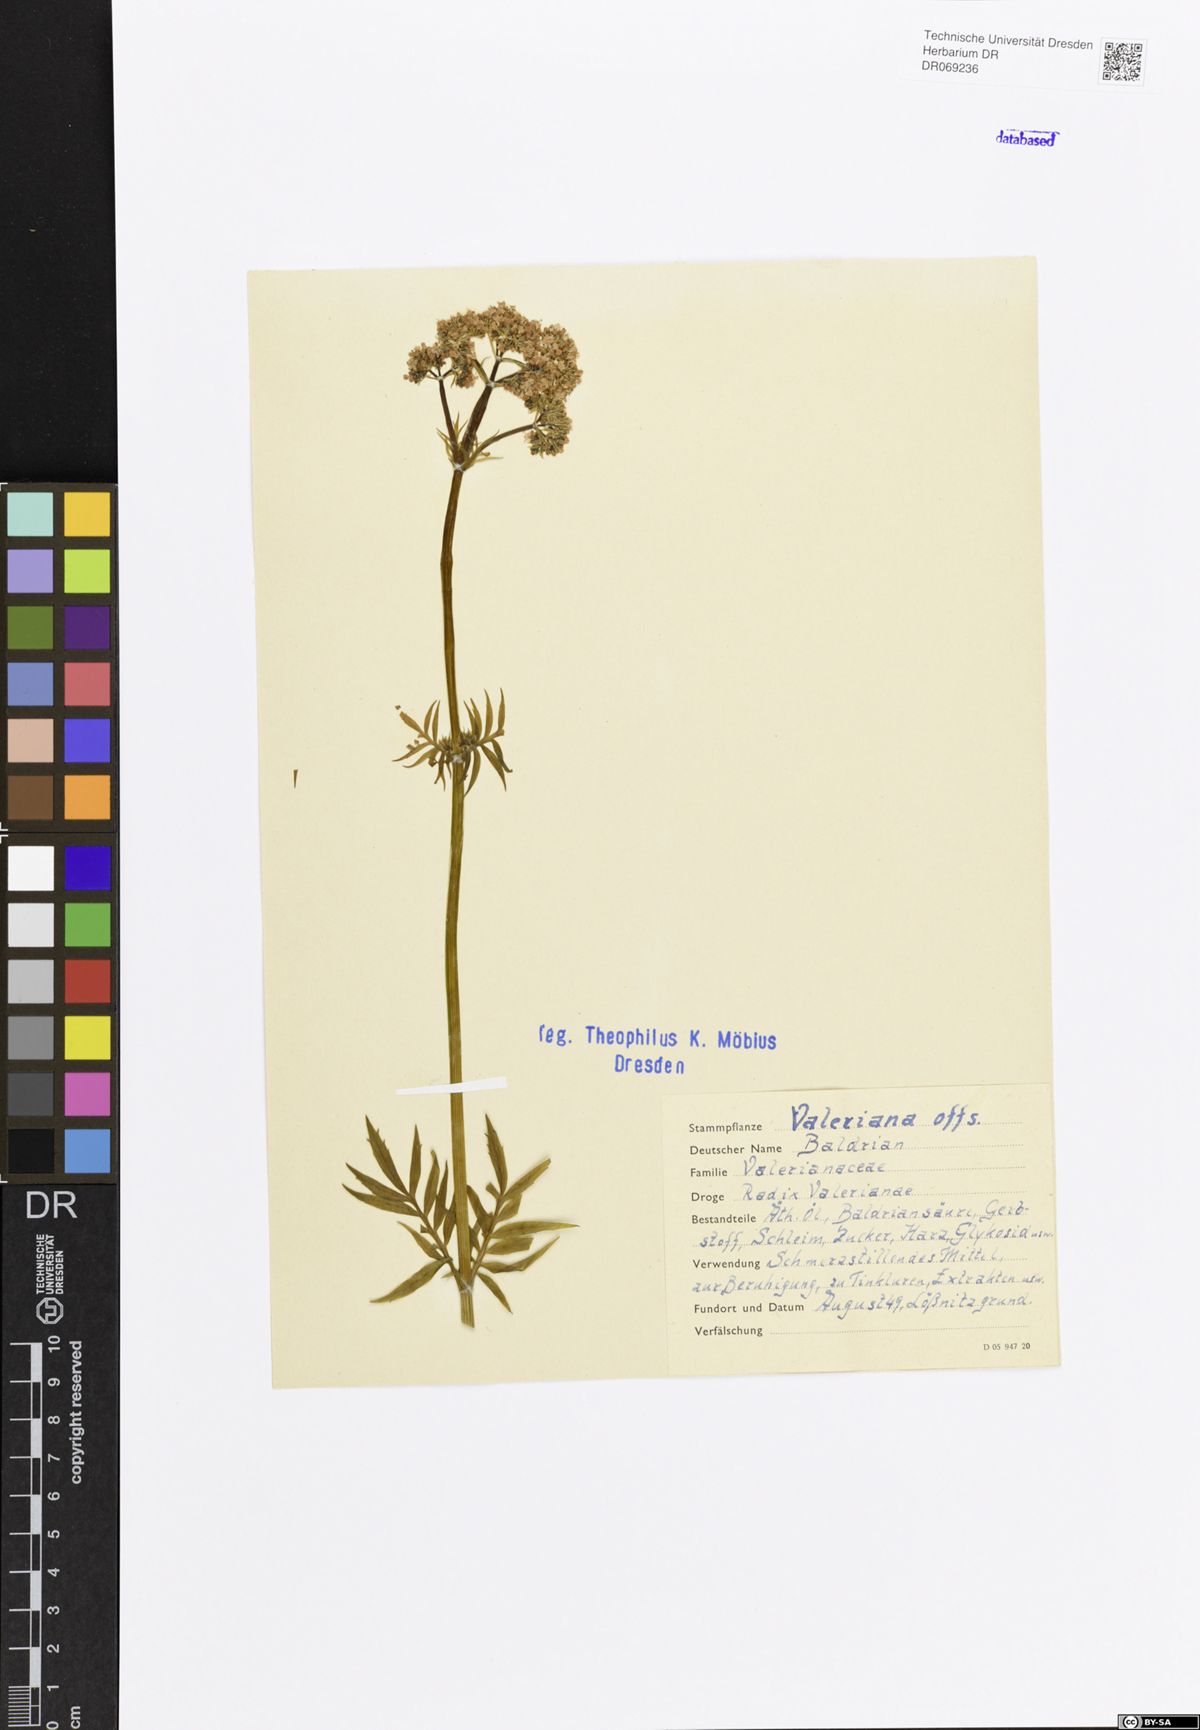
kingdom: Plantae
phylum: Tracheophyta
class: Magnoliopsida
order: Dipsacales
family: Caprifoliaceae
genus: Valeriana
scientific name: Valeriana officinalis
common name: Common valerian
